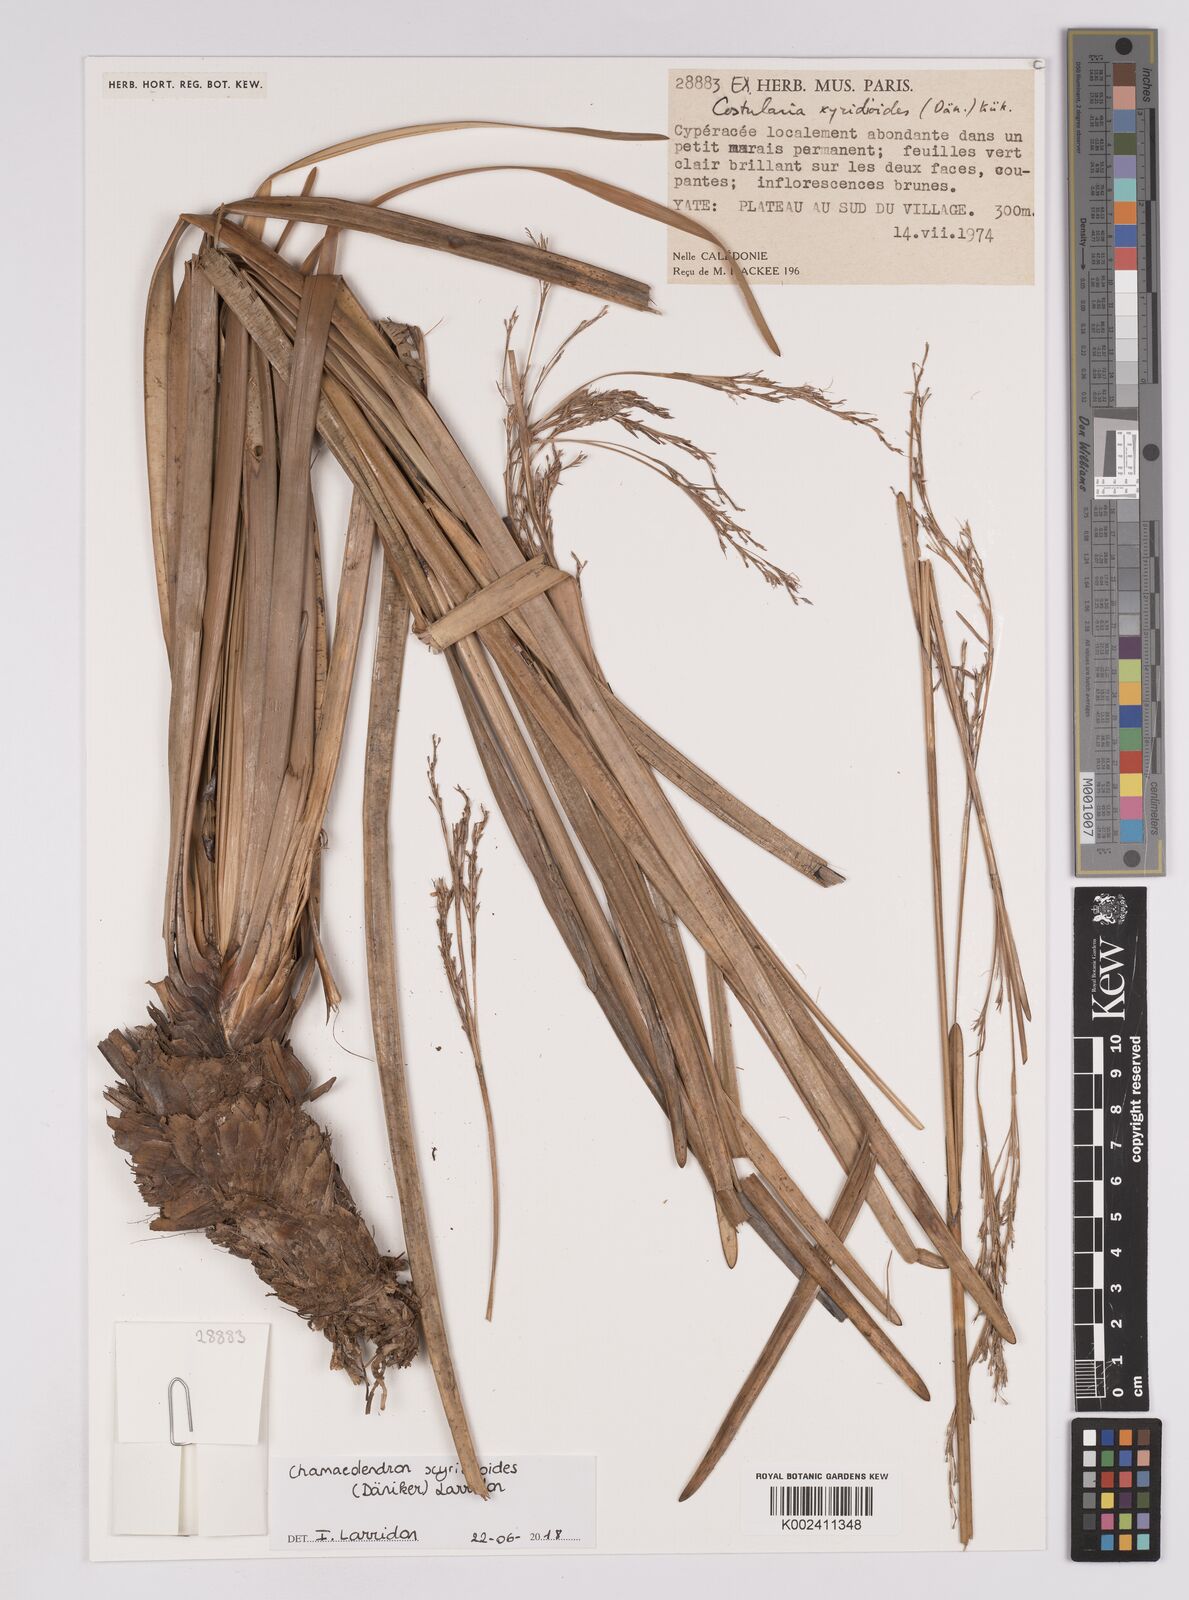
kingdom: Plantae
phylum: Tracheophyta
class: Liliopsida
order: Poales
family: Cyperaceae
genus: Chamaedendron
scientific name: Chamaedendron xyridioides
